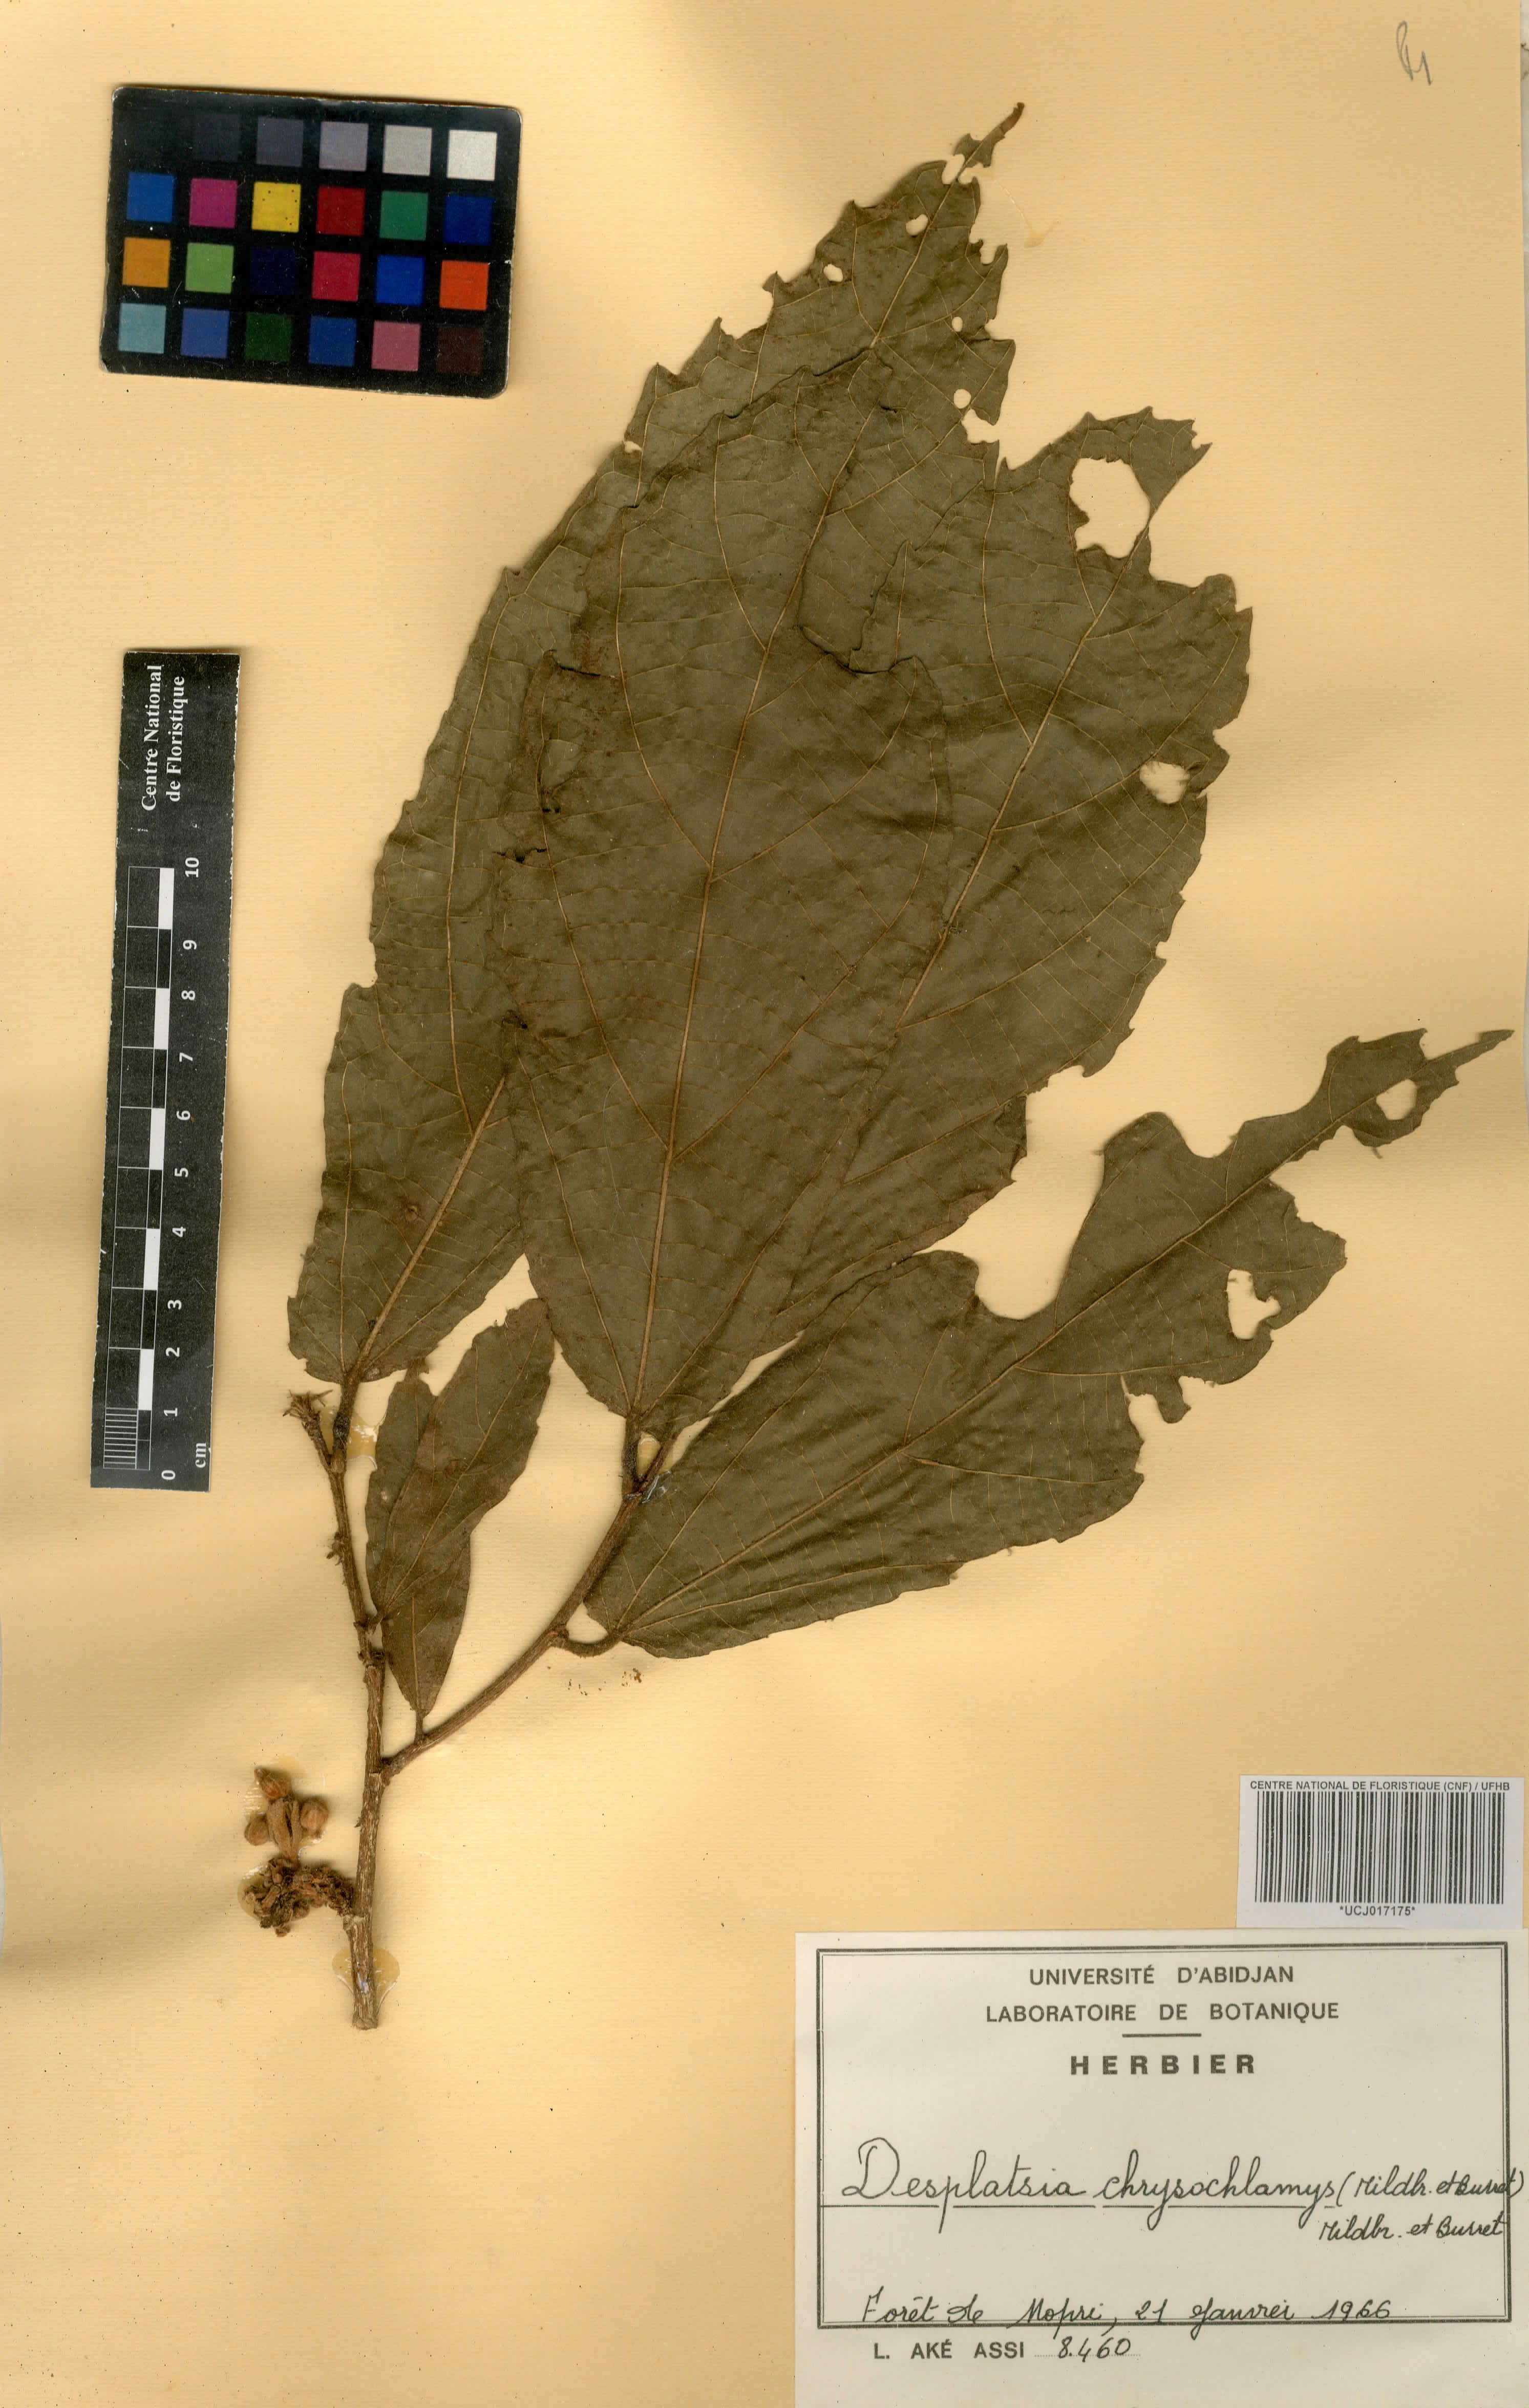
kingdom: Plantae
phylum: Tracheophyta
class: Magnoliopsida
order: Malvales
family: Malvaceae
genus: Desplatsia
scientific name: Desplatsia chrysochlamys
